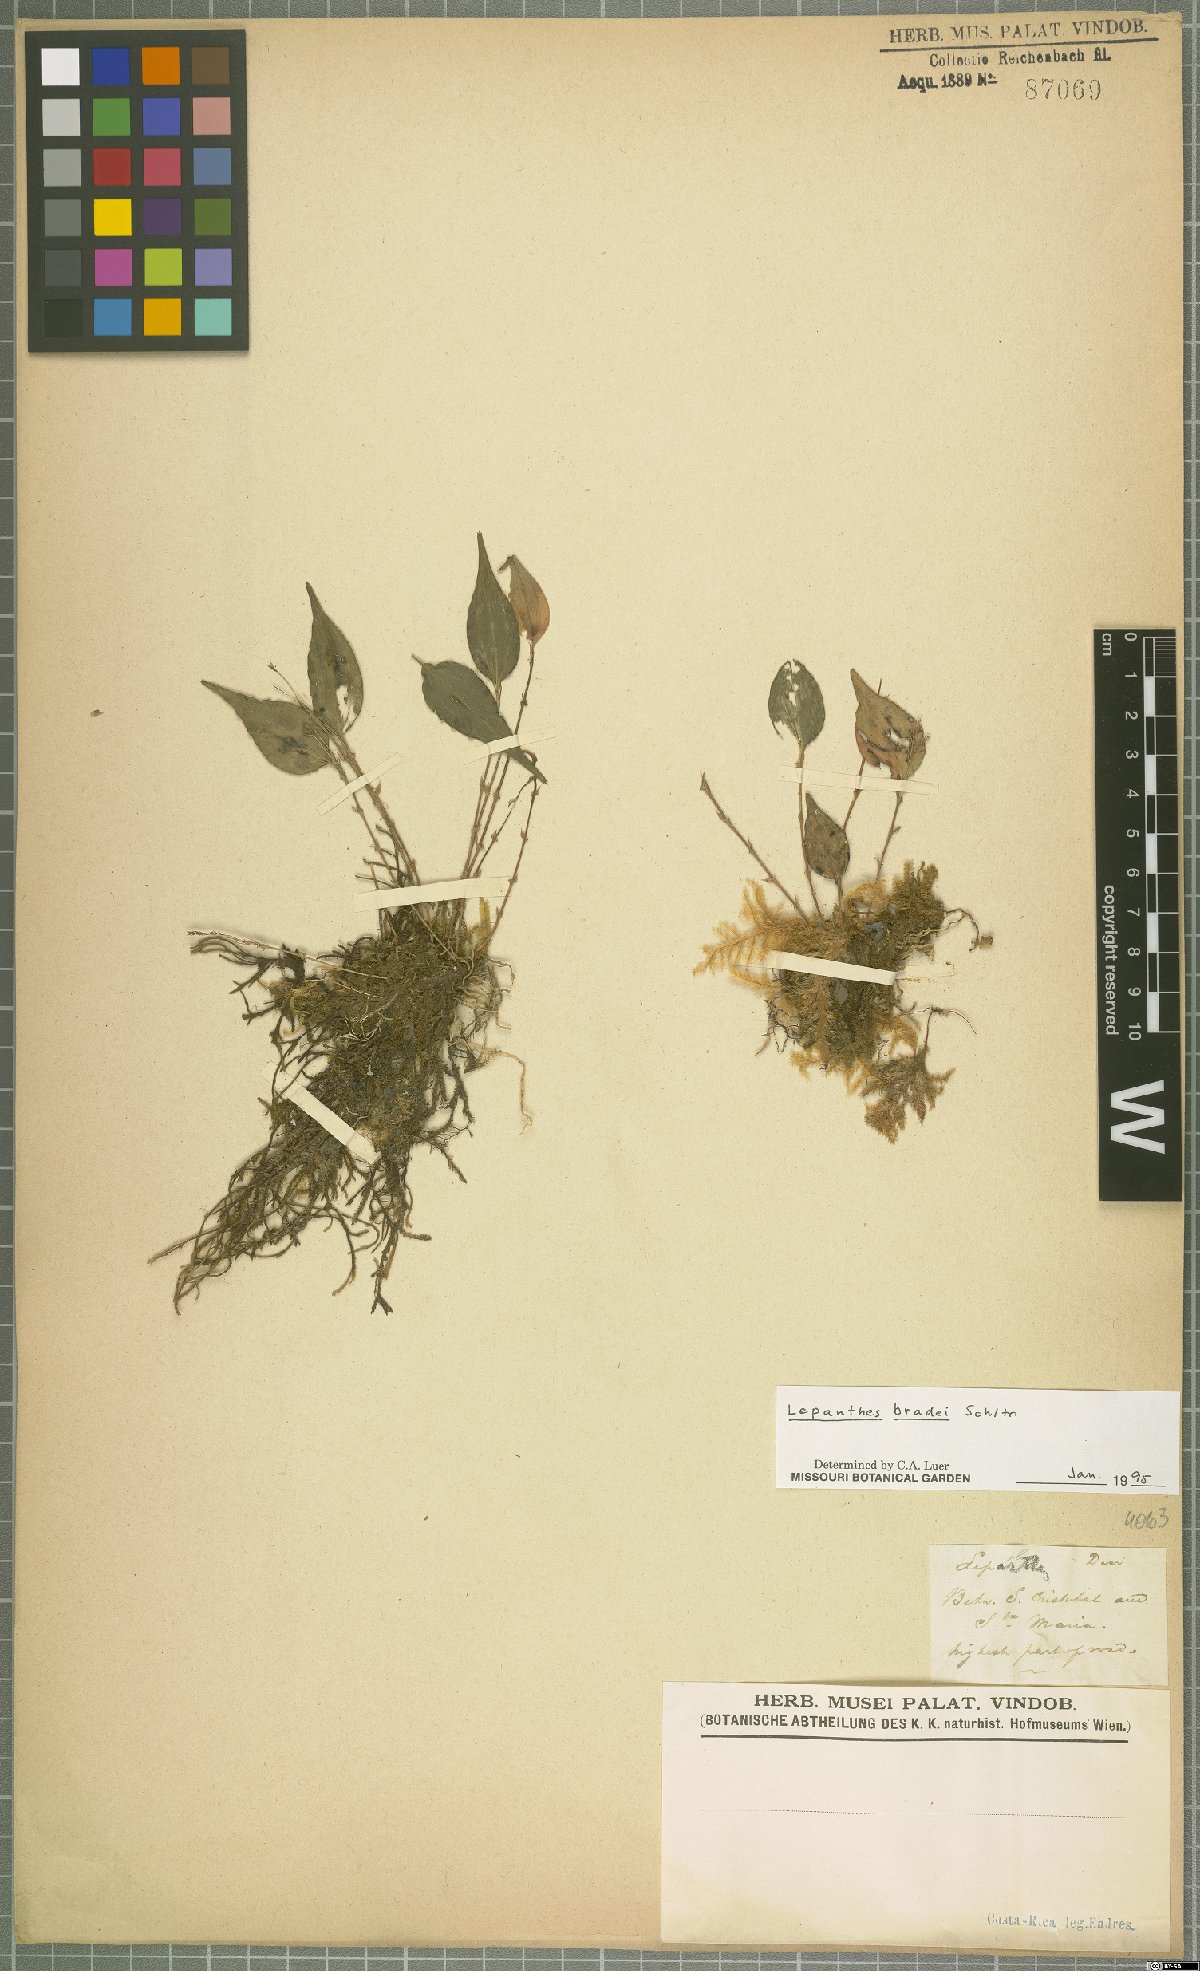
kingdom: Plantae
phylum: Tracheophyta
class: Liliopsida
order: Asparagales
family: Orchidaceae
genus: Lepanthes
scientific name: Lepanthes bradei
